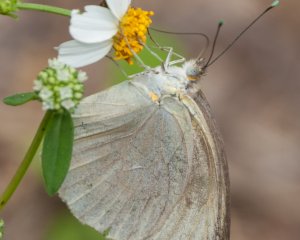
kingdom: Animalia
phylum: Arthropoda
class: Insecta
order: Lepidoptera
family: Pieridae
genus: Ascia
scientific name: Ascia monuste
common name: Great Southern White
